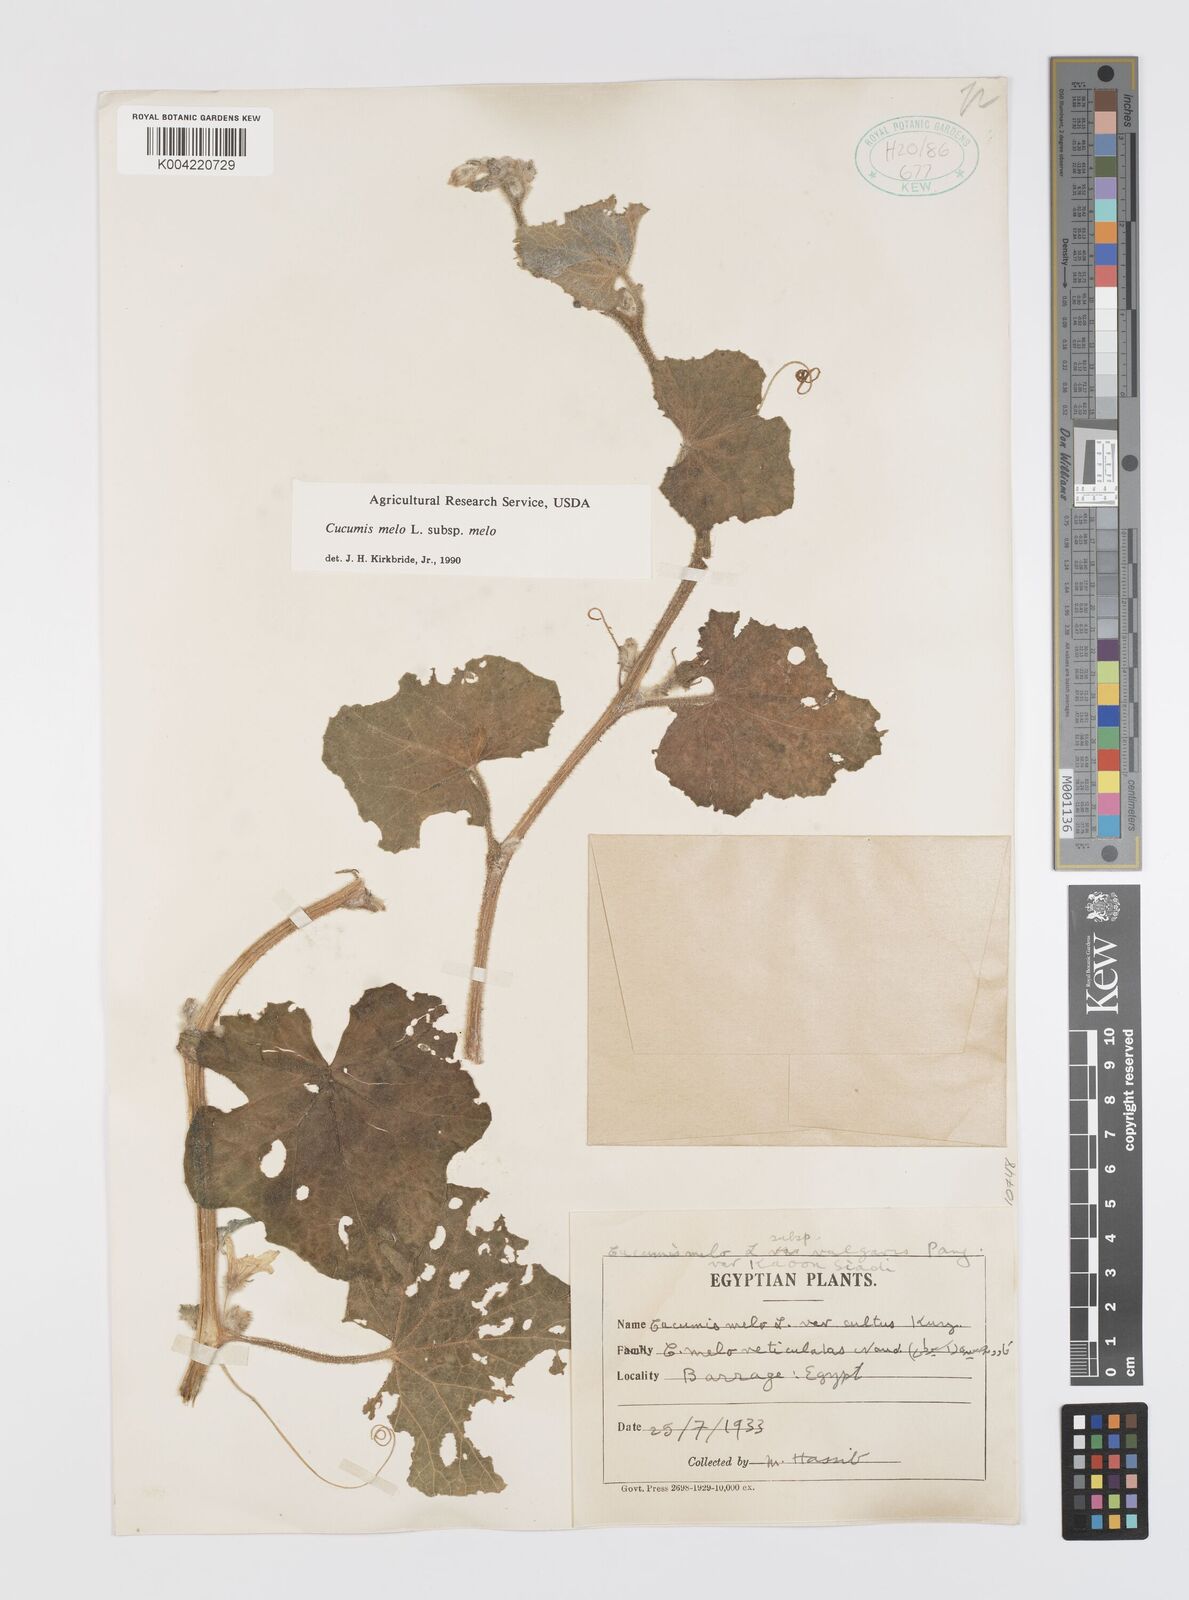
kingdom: Plantae
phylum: Tracheophyta
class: Magnoliopsida
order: Cucurbitales
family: Cucurbitaceae
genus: Cucumis
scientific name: Cucumis melo
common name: Melon
